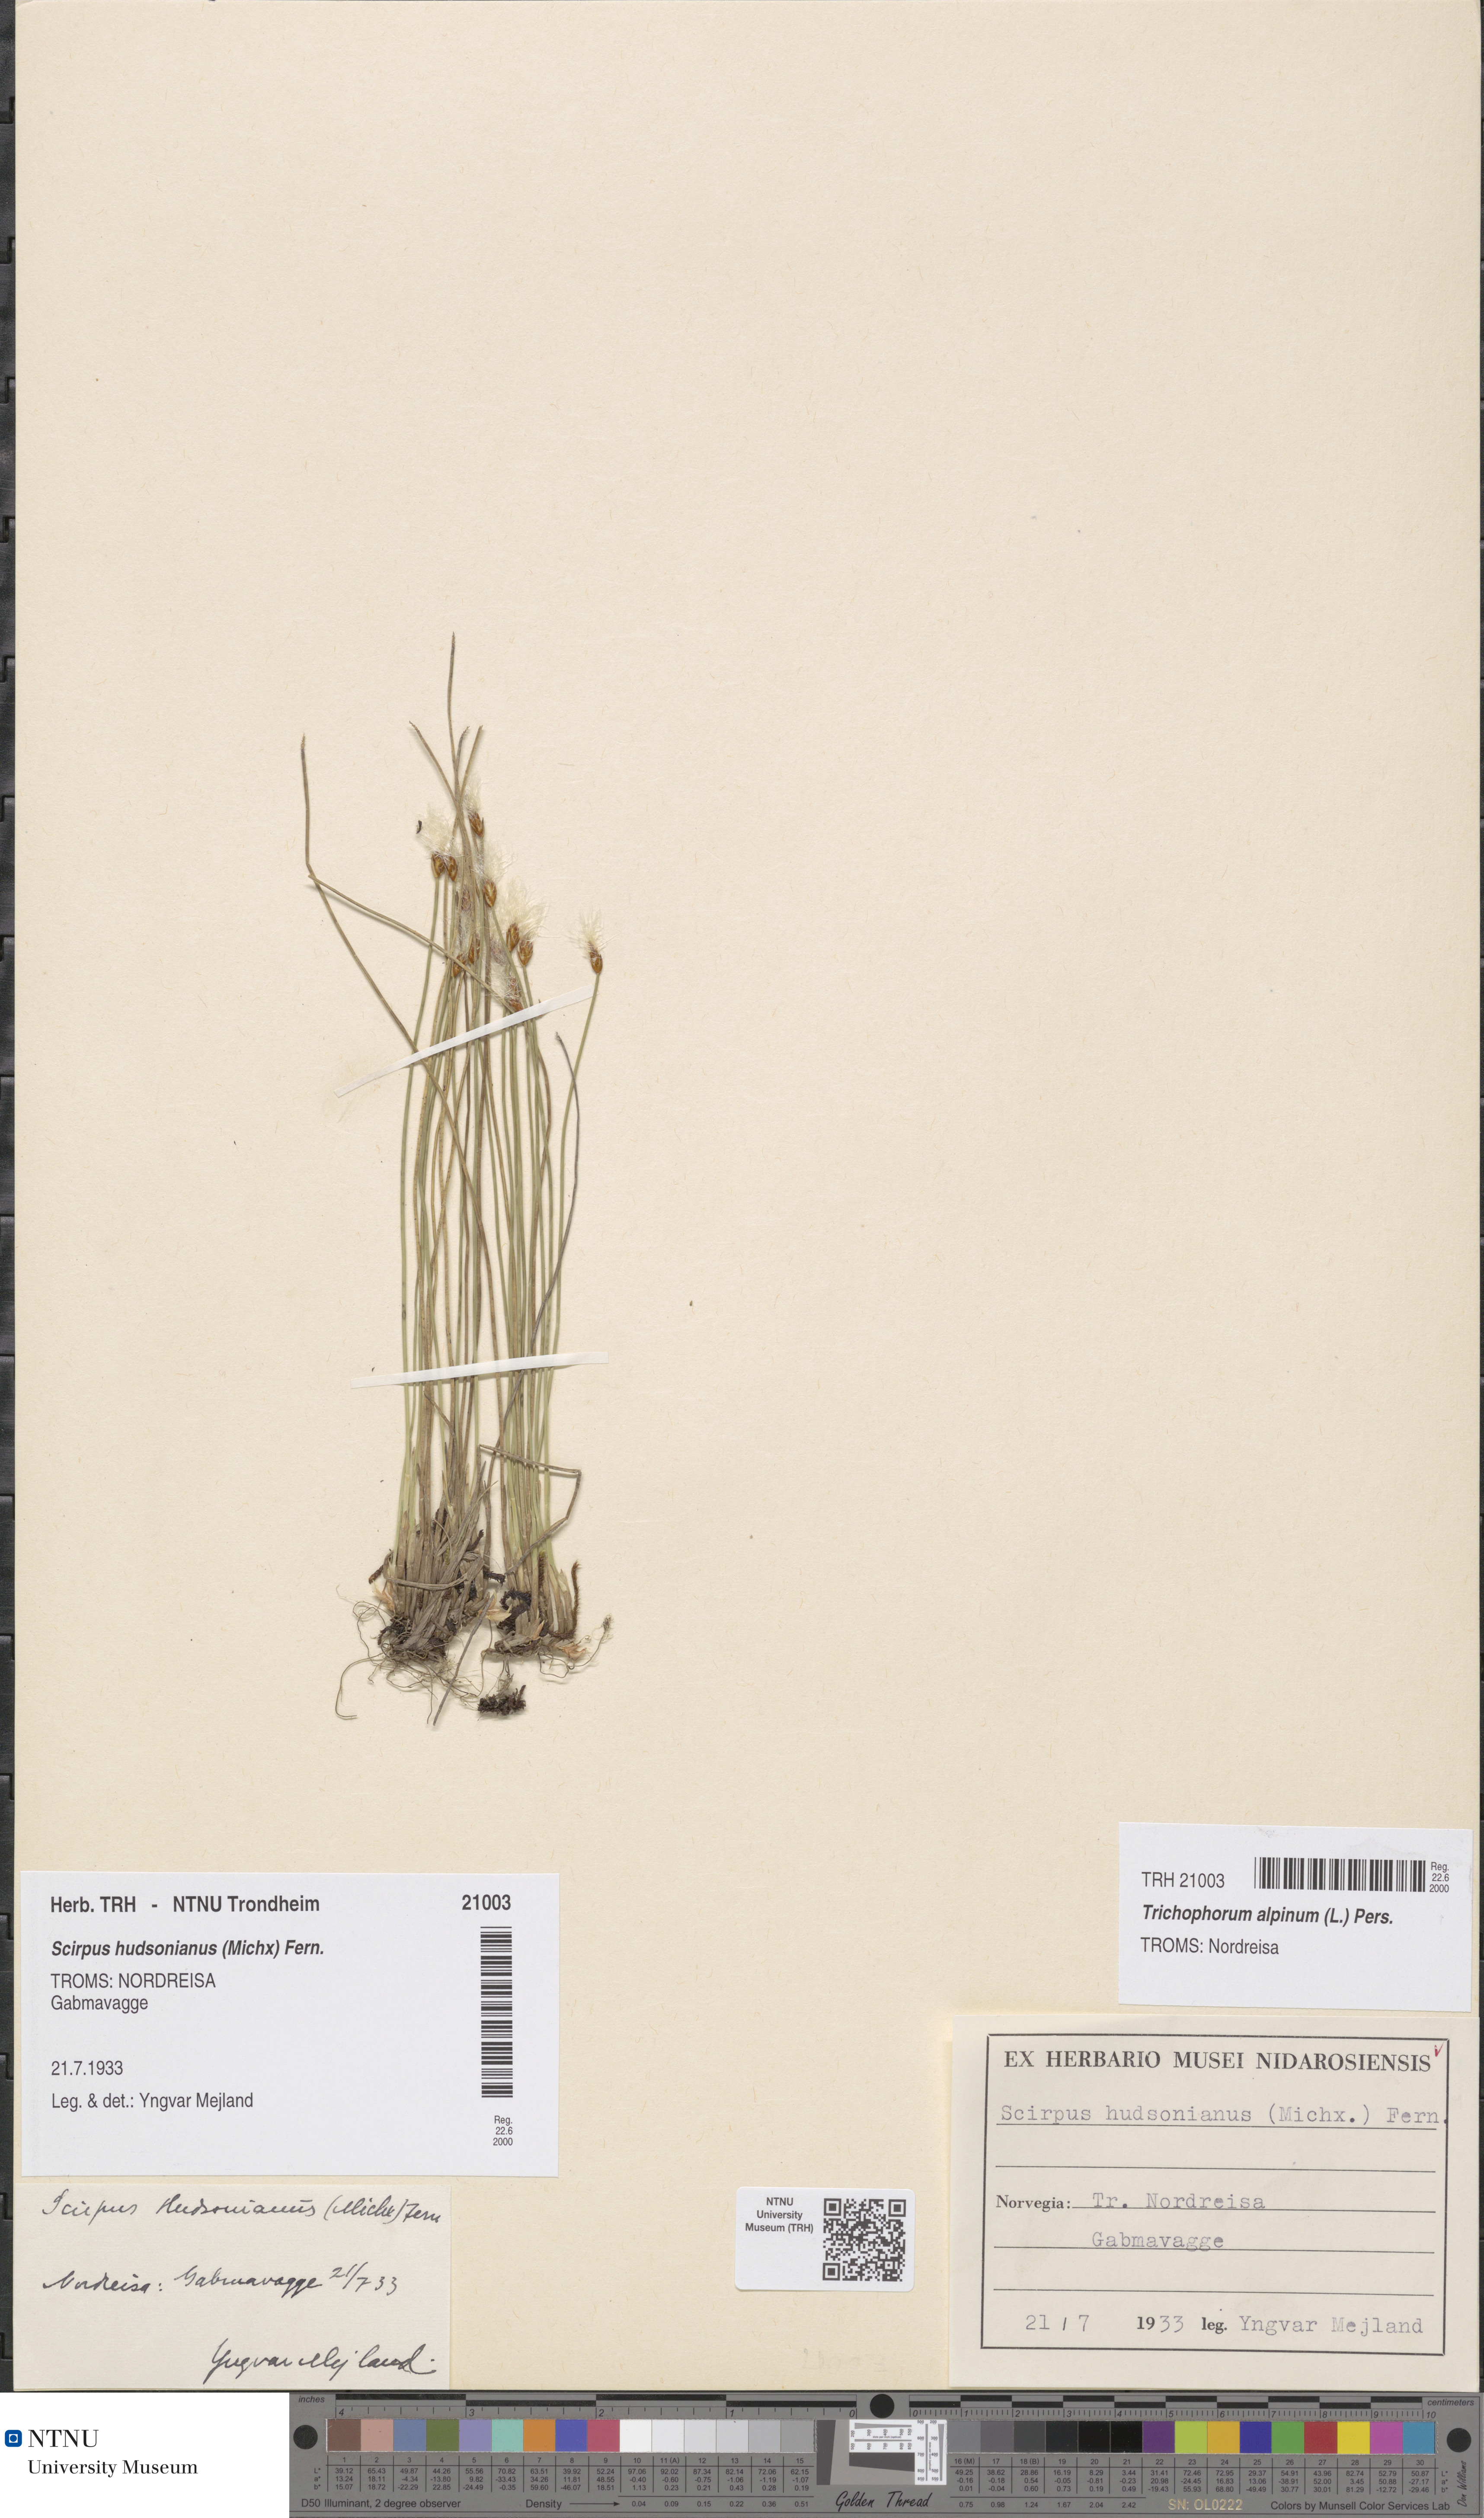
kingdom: Plantae
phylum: Tracheophyta
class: Liliopsida
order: Poales
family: Cyperaceae
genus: Trichophorum
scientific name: Trichophorum alpinum
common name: Alpine bulrush
